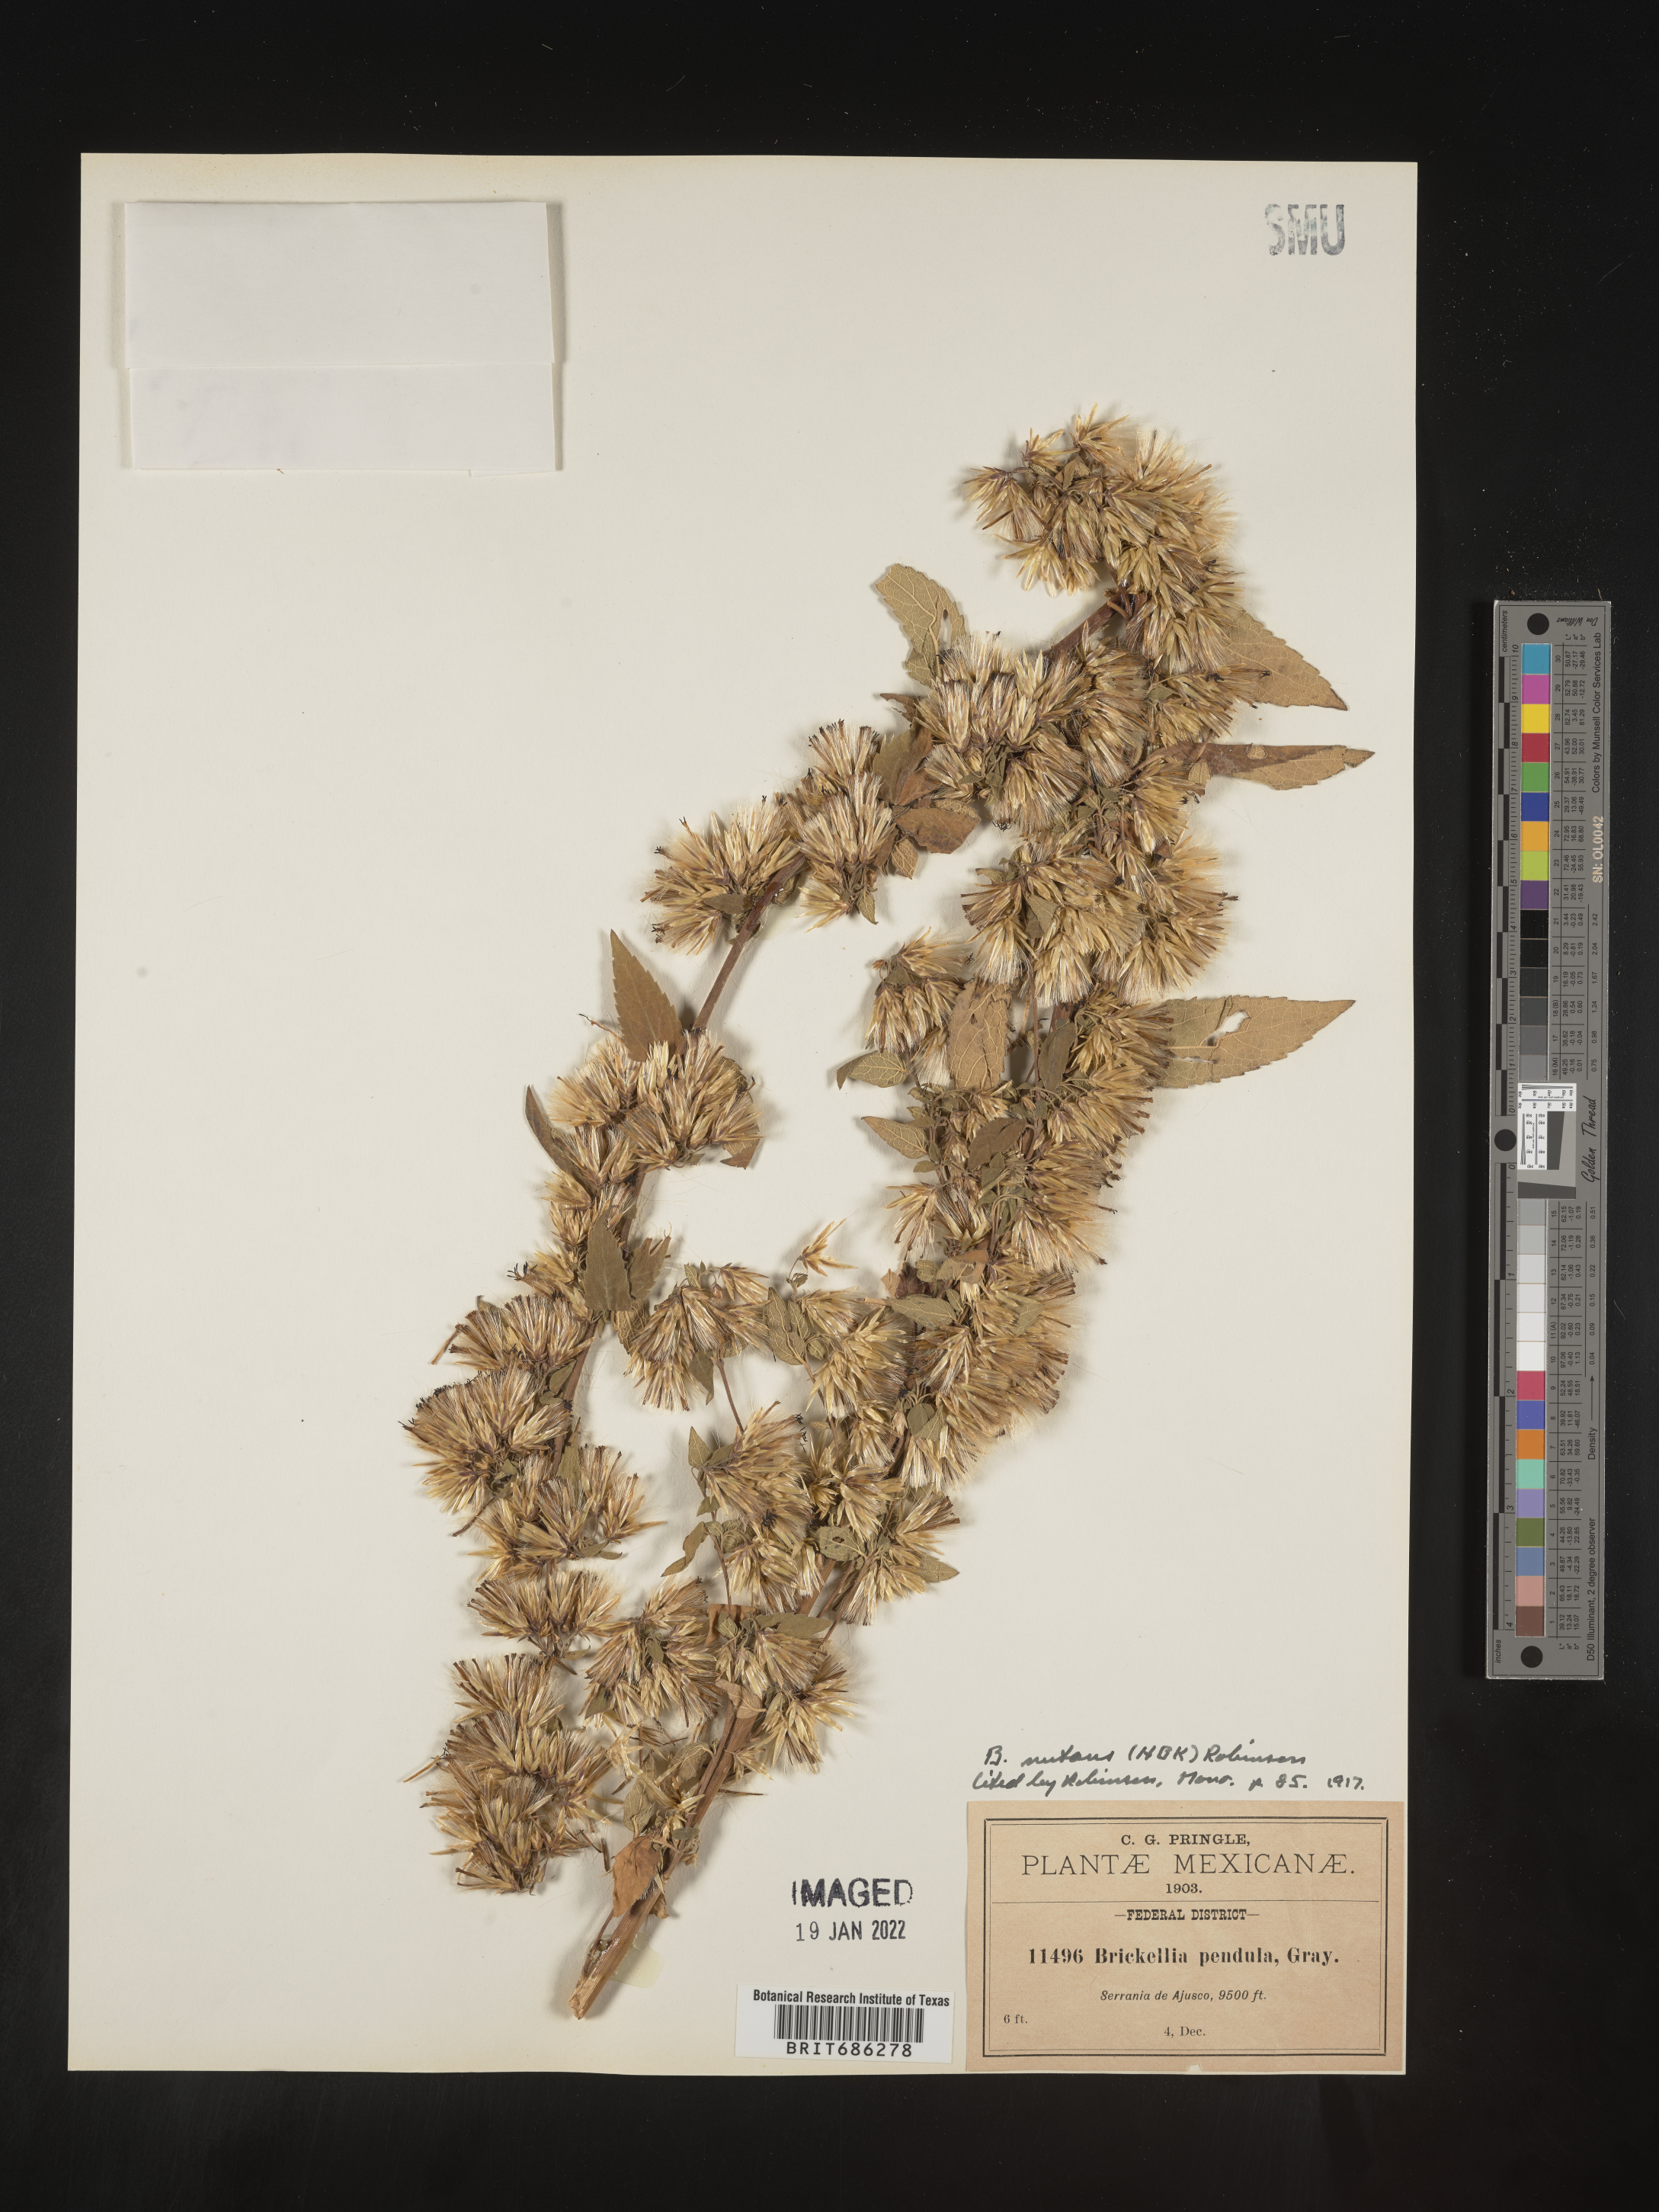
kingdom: Plantae
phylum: Tracheophyta
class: Magnoliopsida
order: Asterales
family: Asteraceae
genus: Brickellia
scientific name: Brickellia
